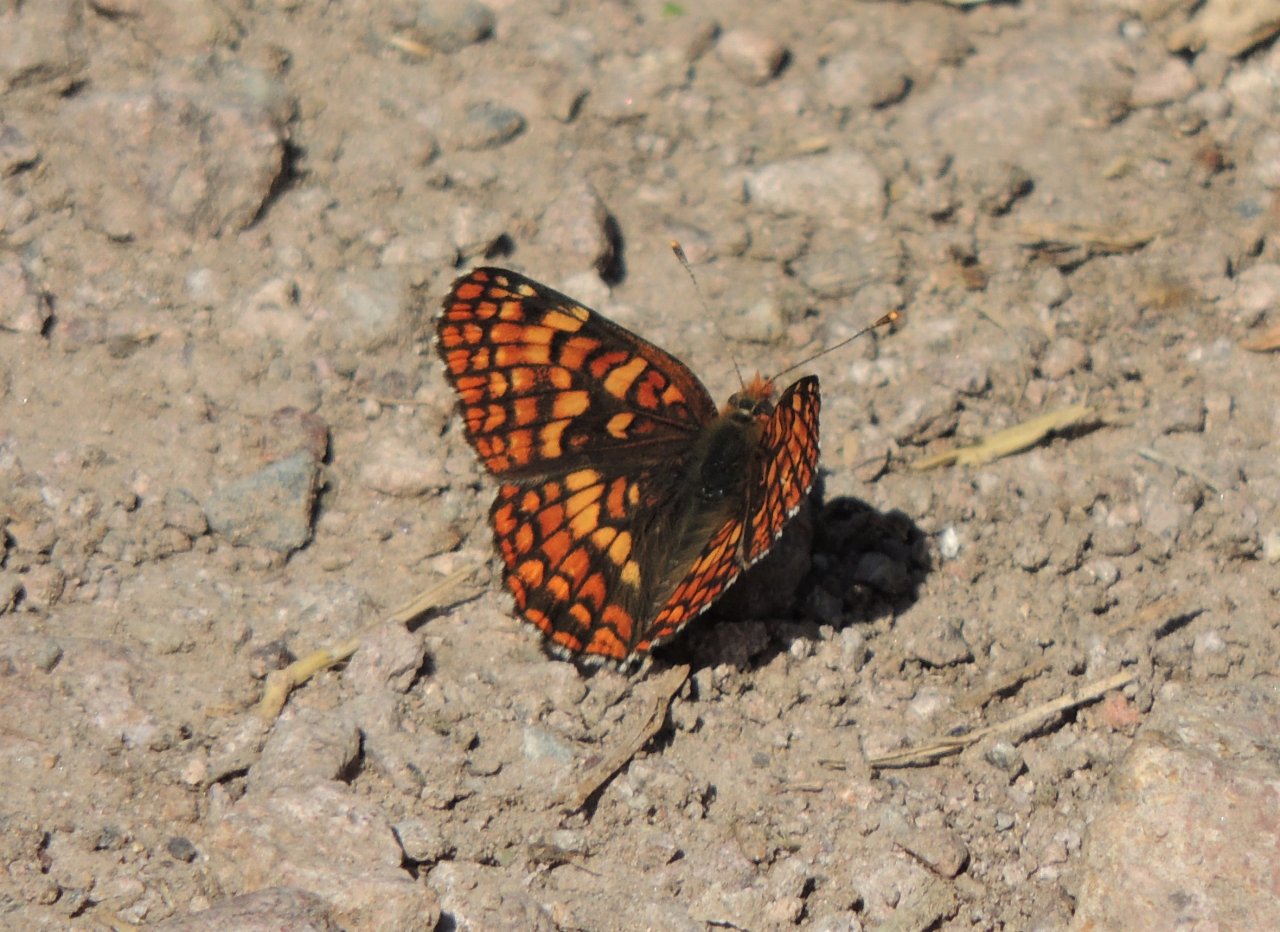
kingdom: Animalia
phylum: Arthropoda
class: Insecta
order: Lepidoptera
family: Nymphalidae
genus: Chlosyne
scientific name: Chlosyne palla
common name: Northern Checkerspot
